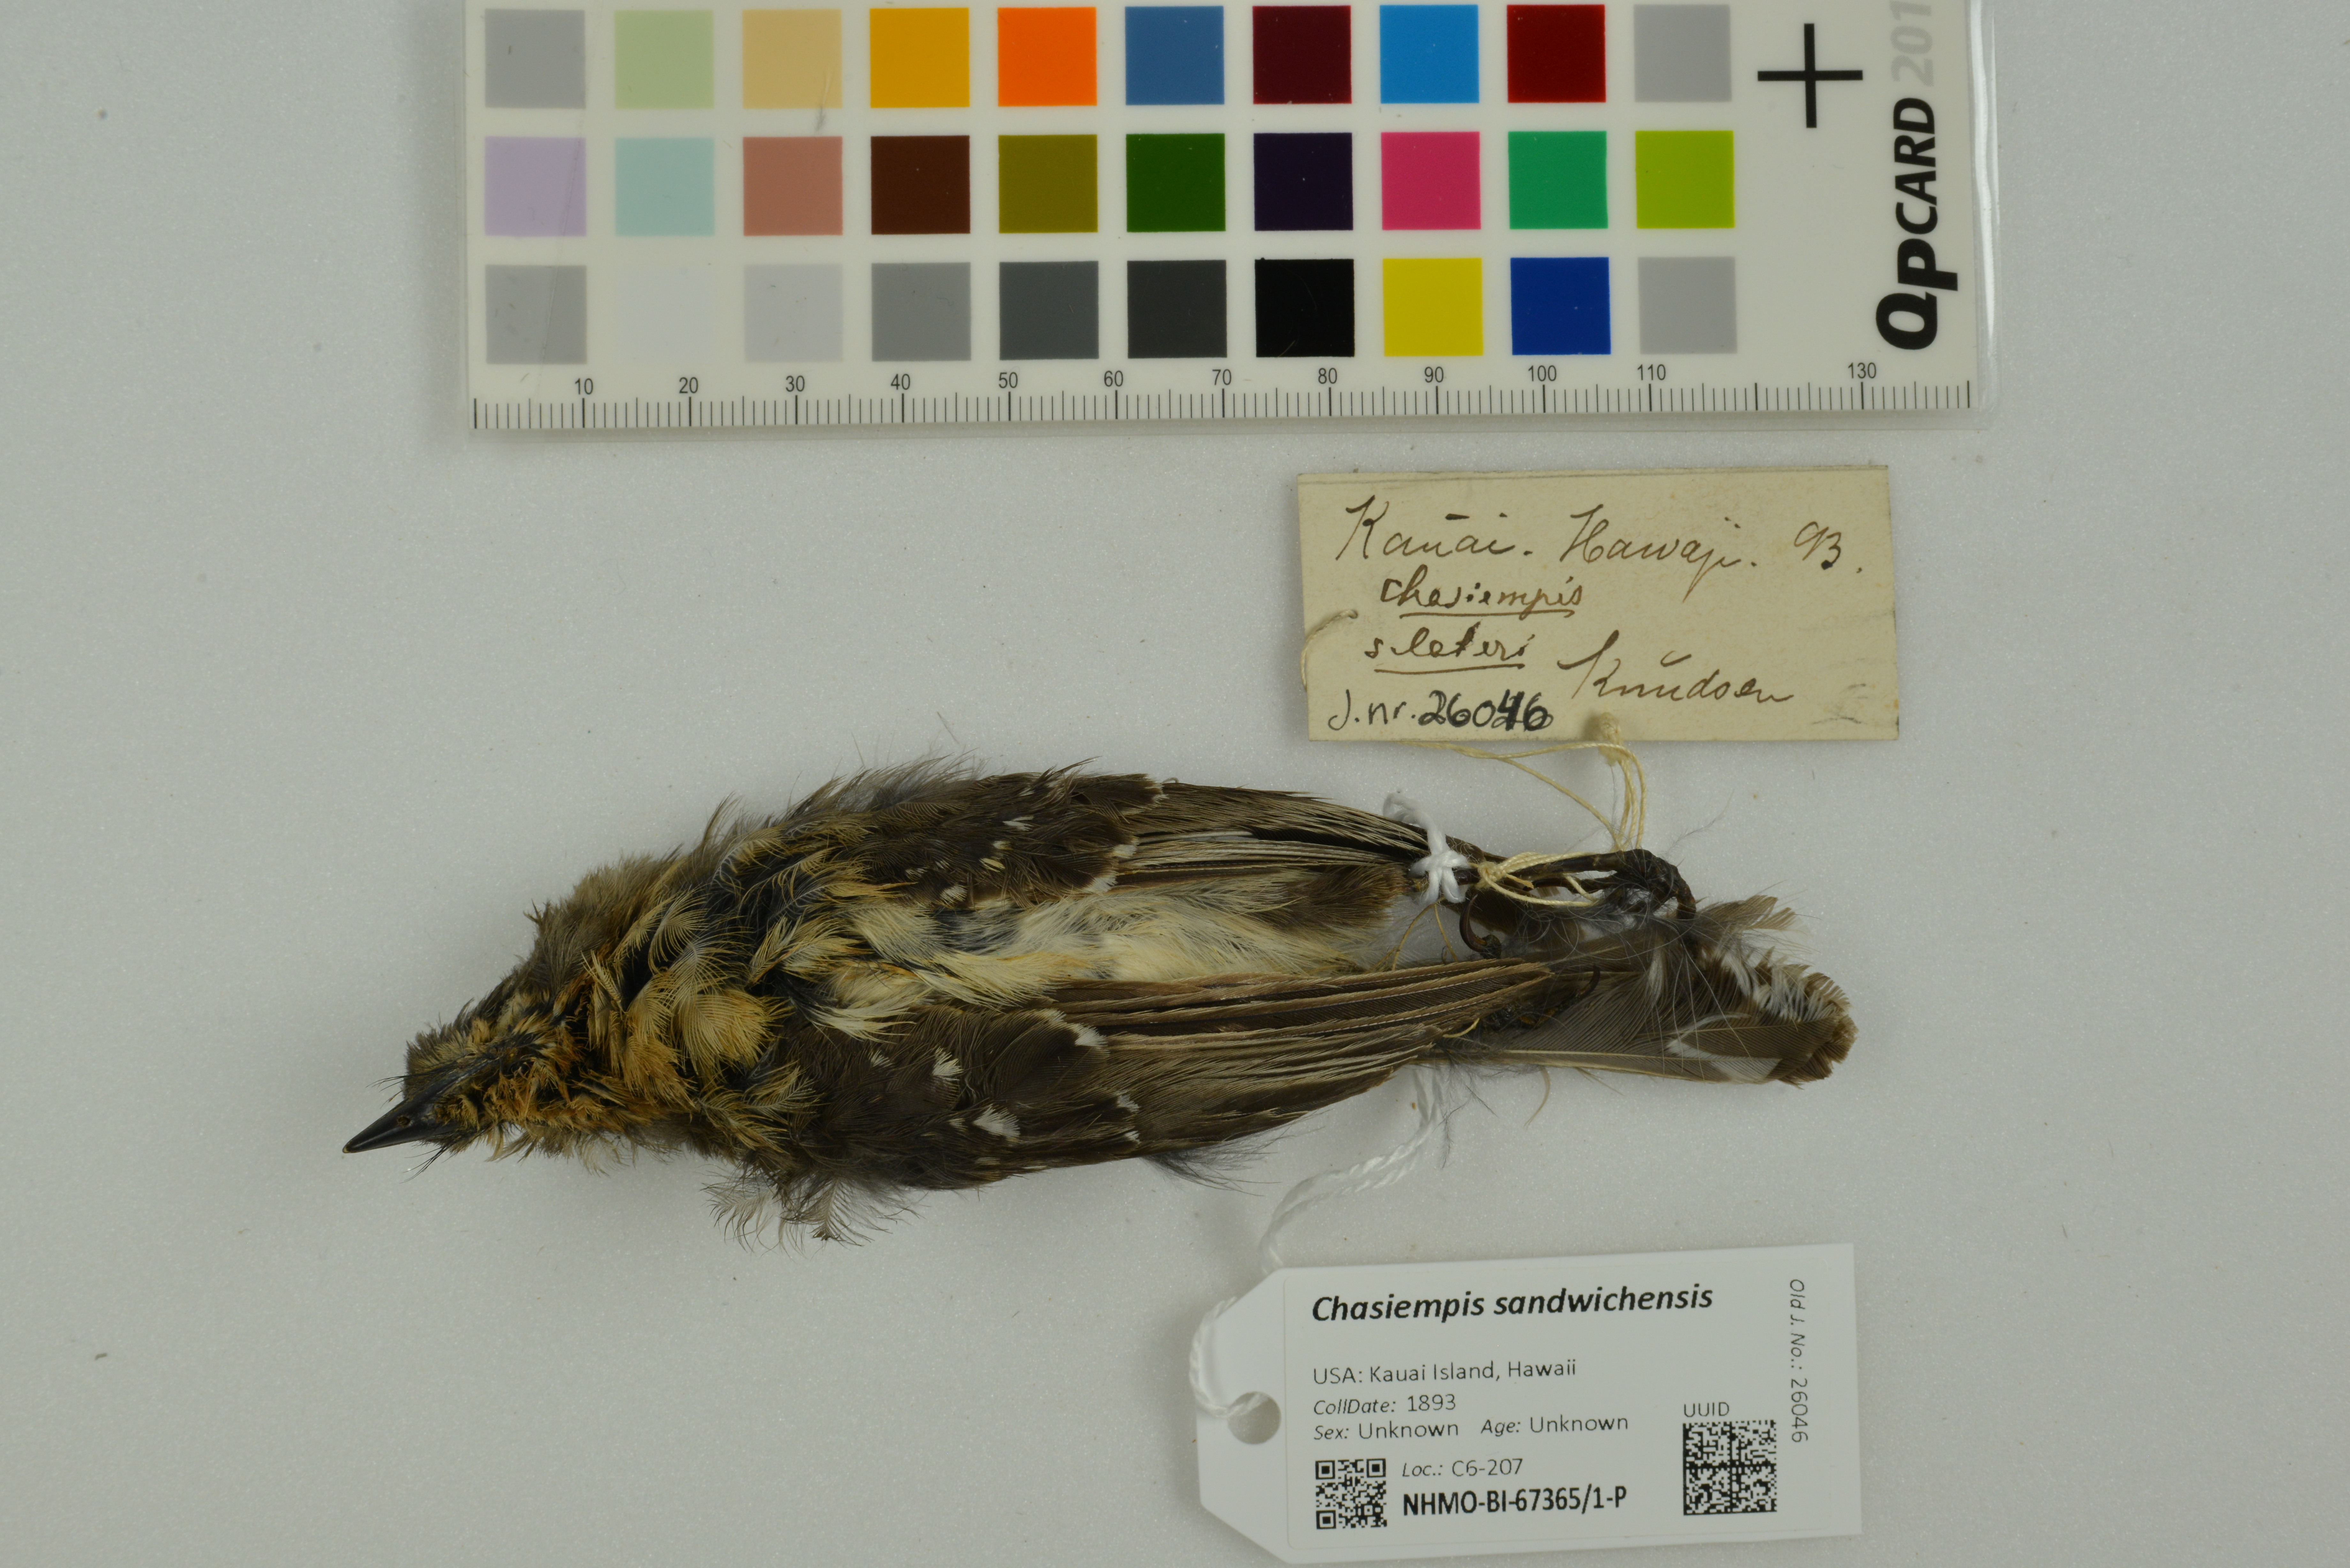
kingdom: Animalia
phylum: Chordata
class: Aves
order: Passeriformes
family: Monarchidae
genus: Chasiempis
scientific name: Chasiempis sandwichensis
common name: Hawaii elepaio
